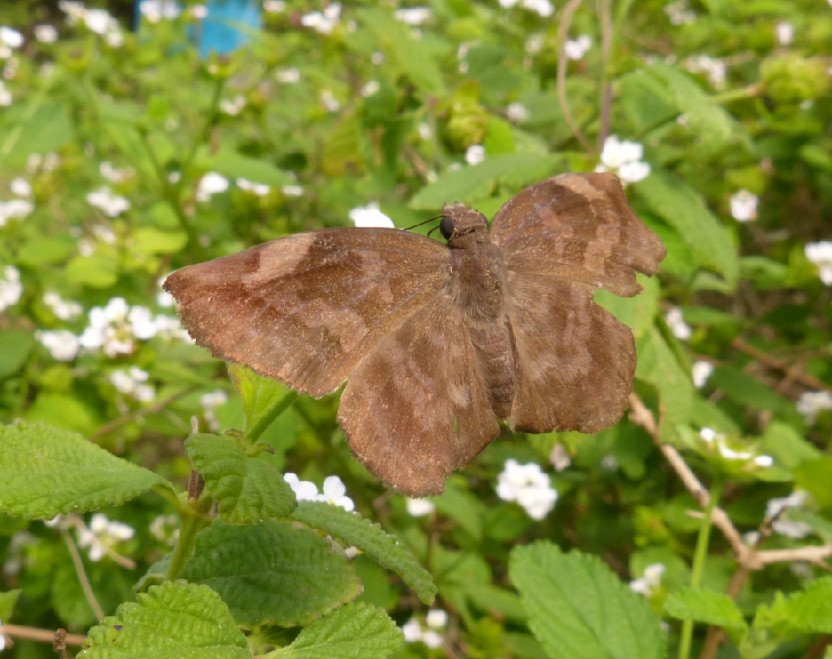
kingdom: Animalia
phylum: Arthropoda
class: Insecta
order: Lepidoptera
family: Hesperiidae
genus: Achlyodes
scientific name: Achlyodes thraso
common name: Sickle-winged Skipper
